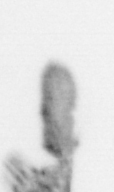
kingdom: Animalia
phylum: Arthropoda
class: Copepoda
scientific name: Copepoda
